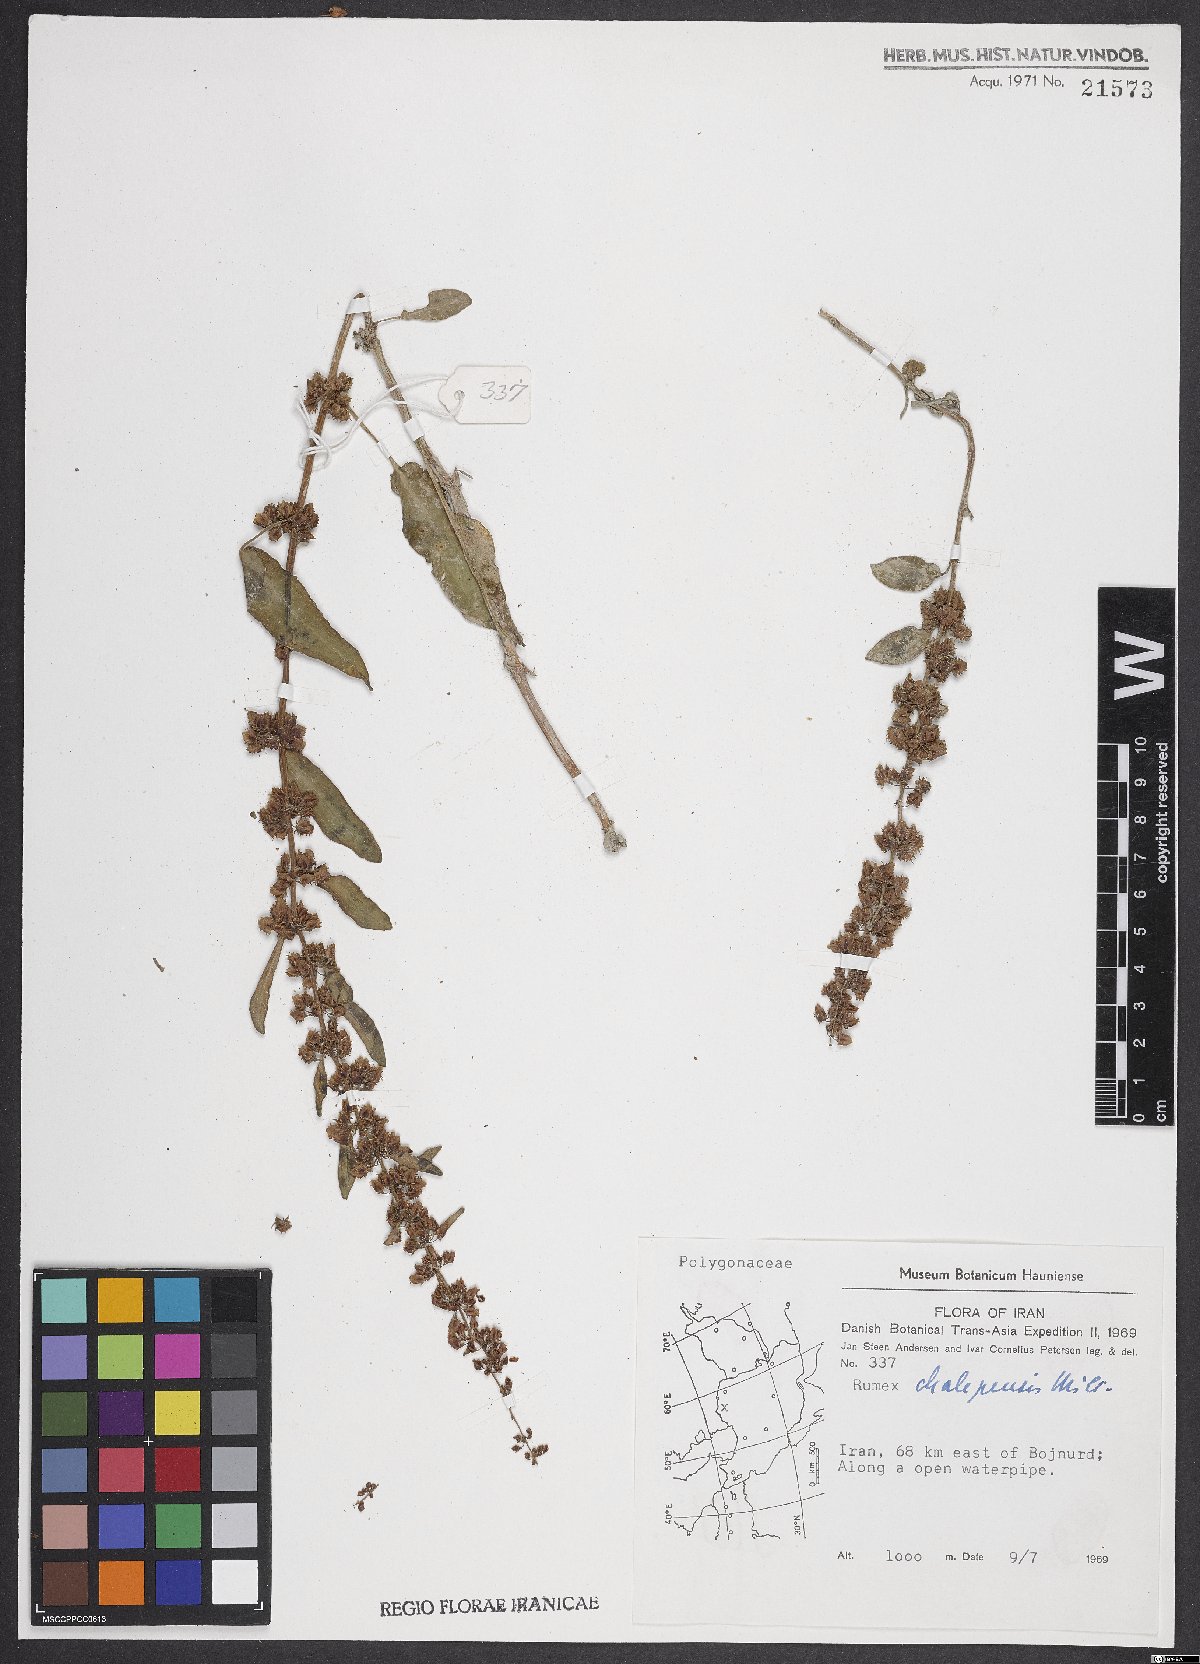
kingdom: Plantae
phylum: Tracheophyta
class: Magnoliopsida
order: Caryophyllales
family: Polygonaceae
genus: Rumex
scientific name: Rumex alpinus
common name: Alpine dock
